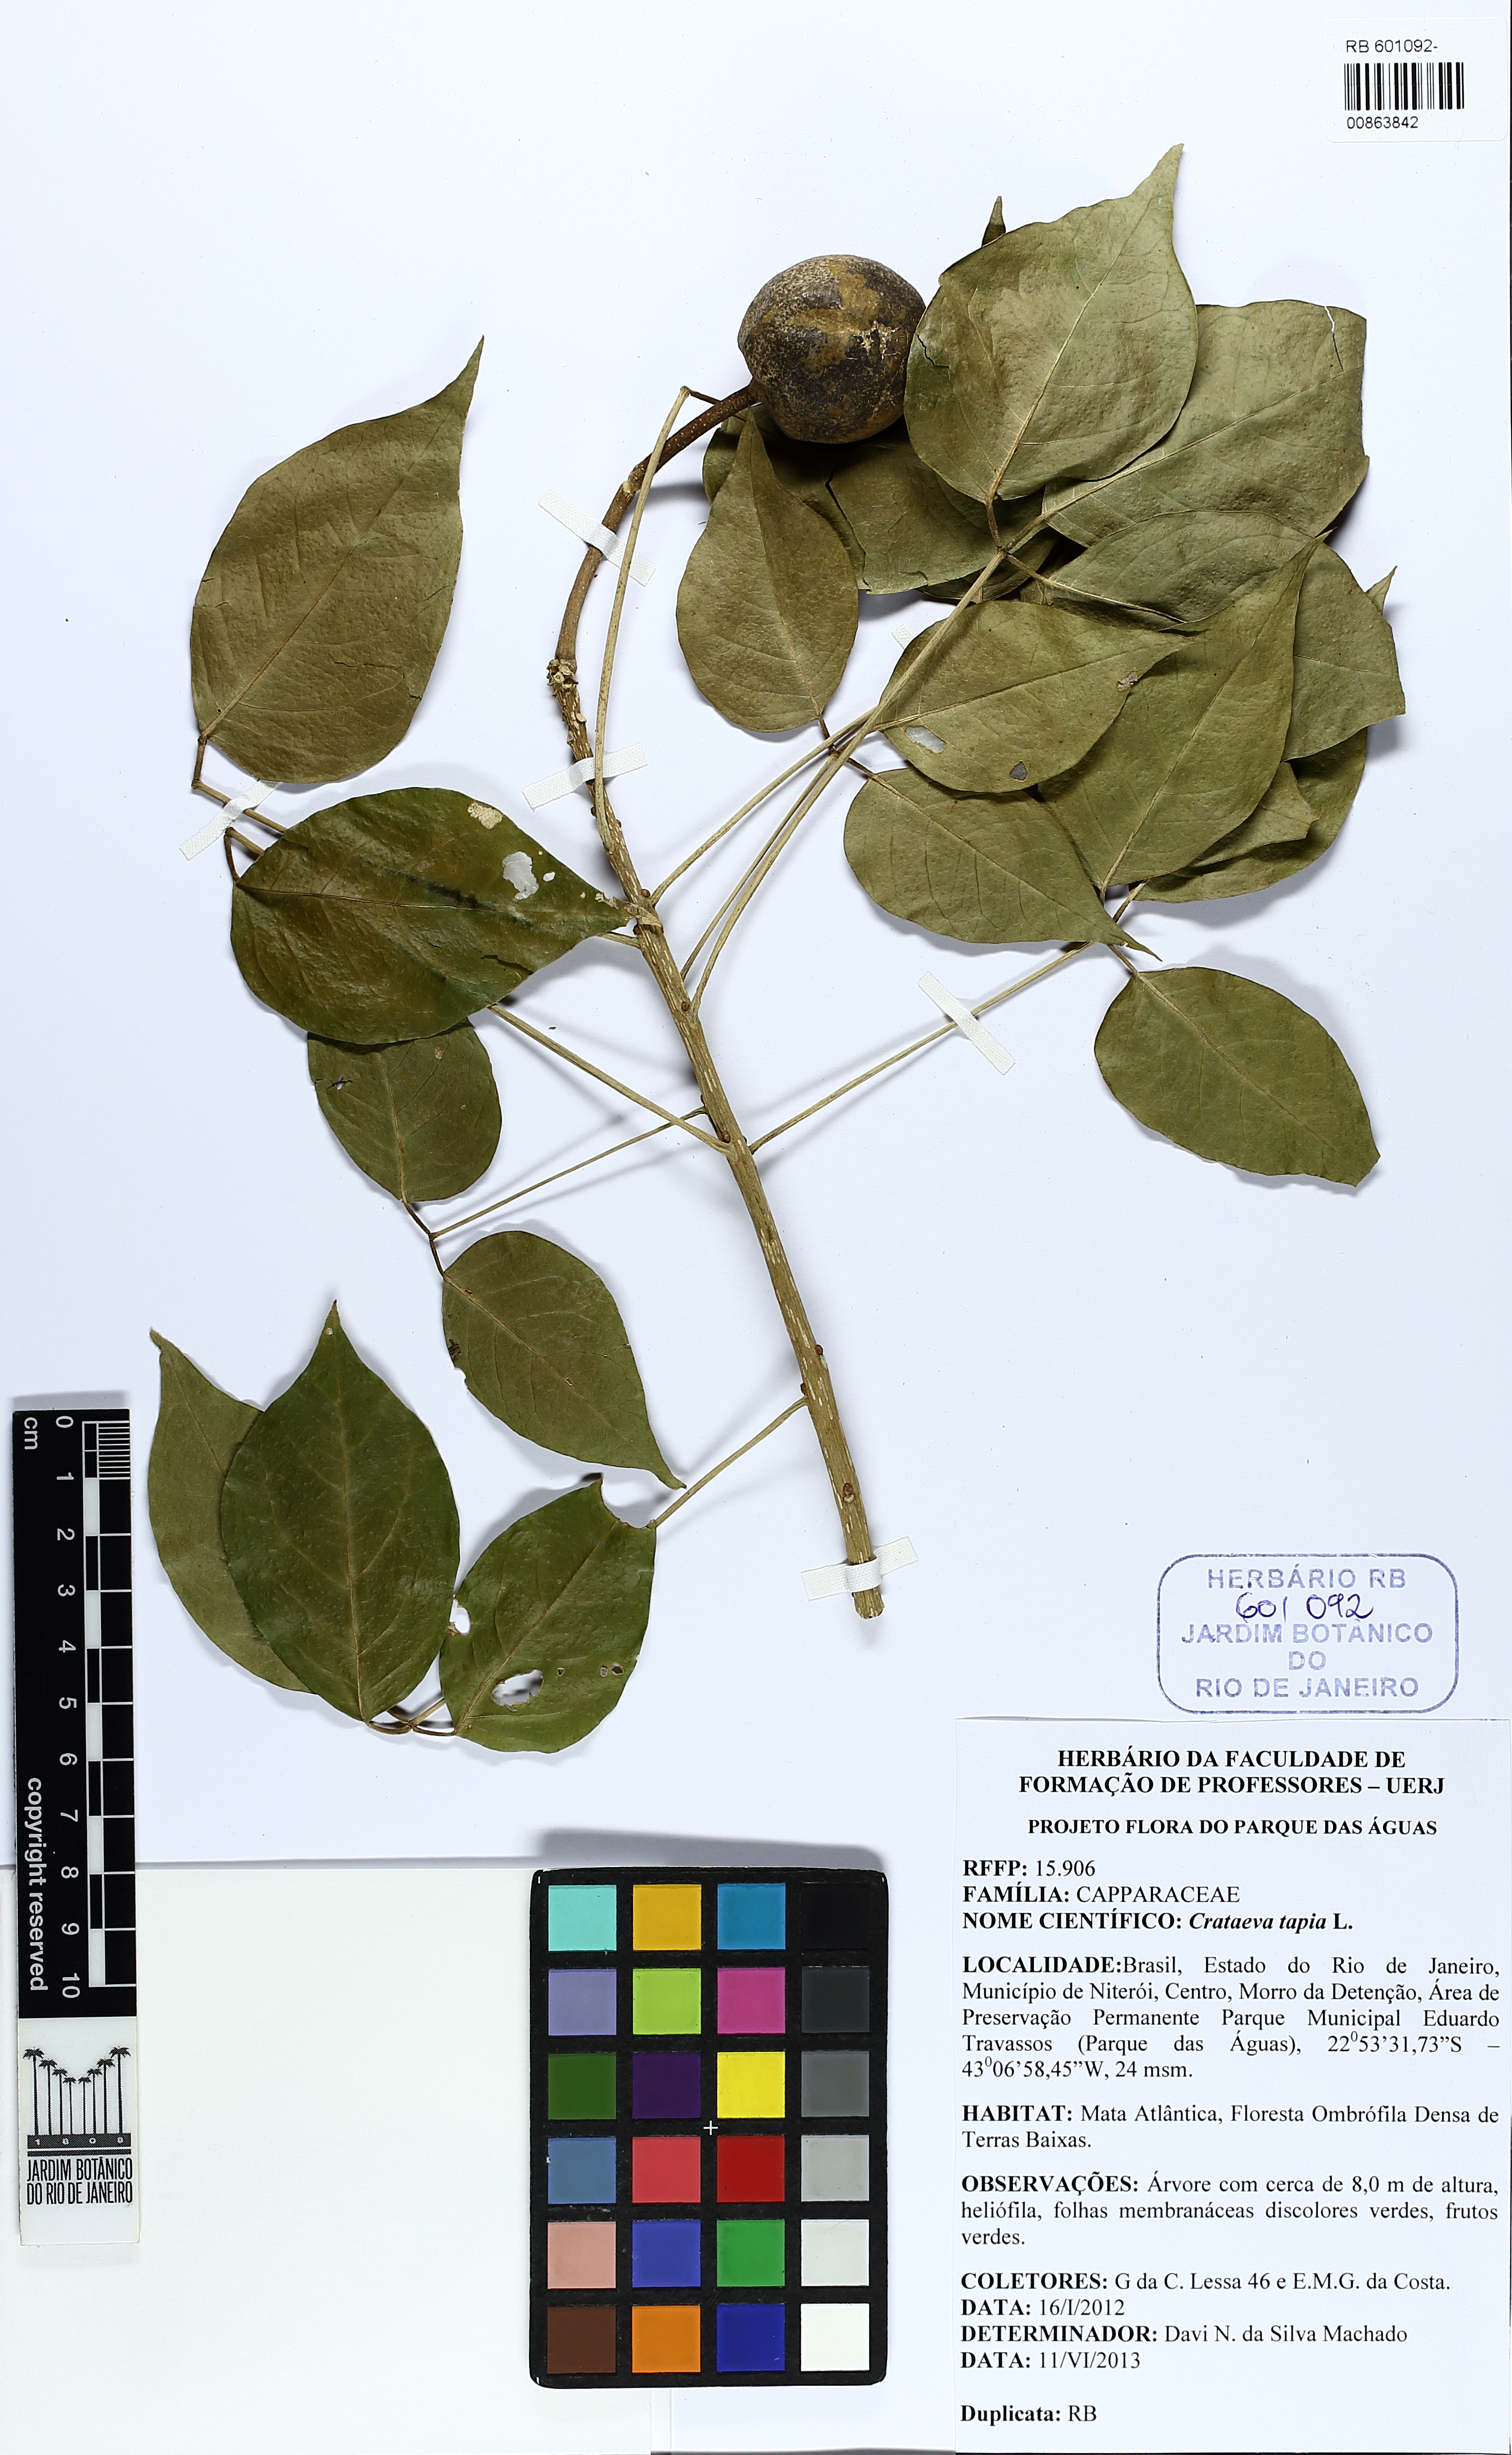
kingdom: Plantae
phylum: Tracheophyta
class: Magnoliopsida
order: Brassicales
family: Capparaceae
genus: Crateva
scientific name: Crateva tapia
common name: Garlic-pear
